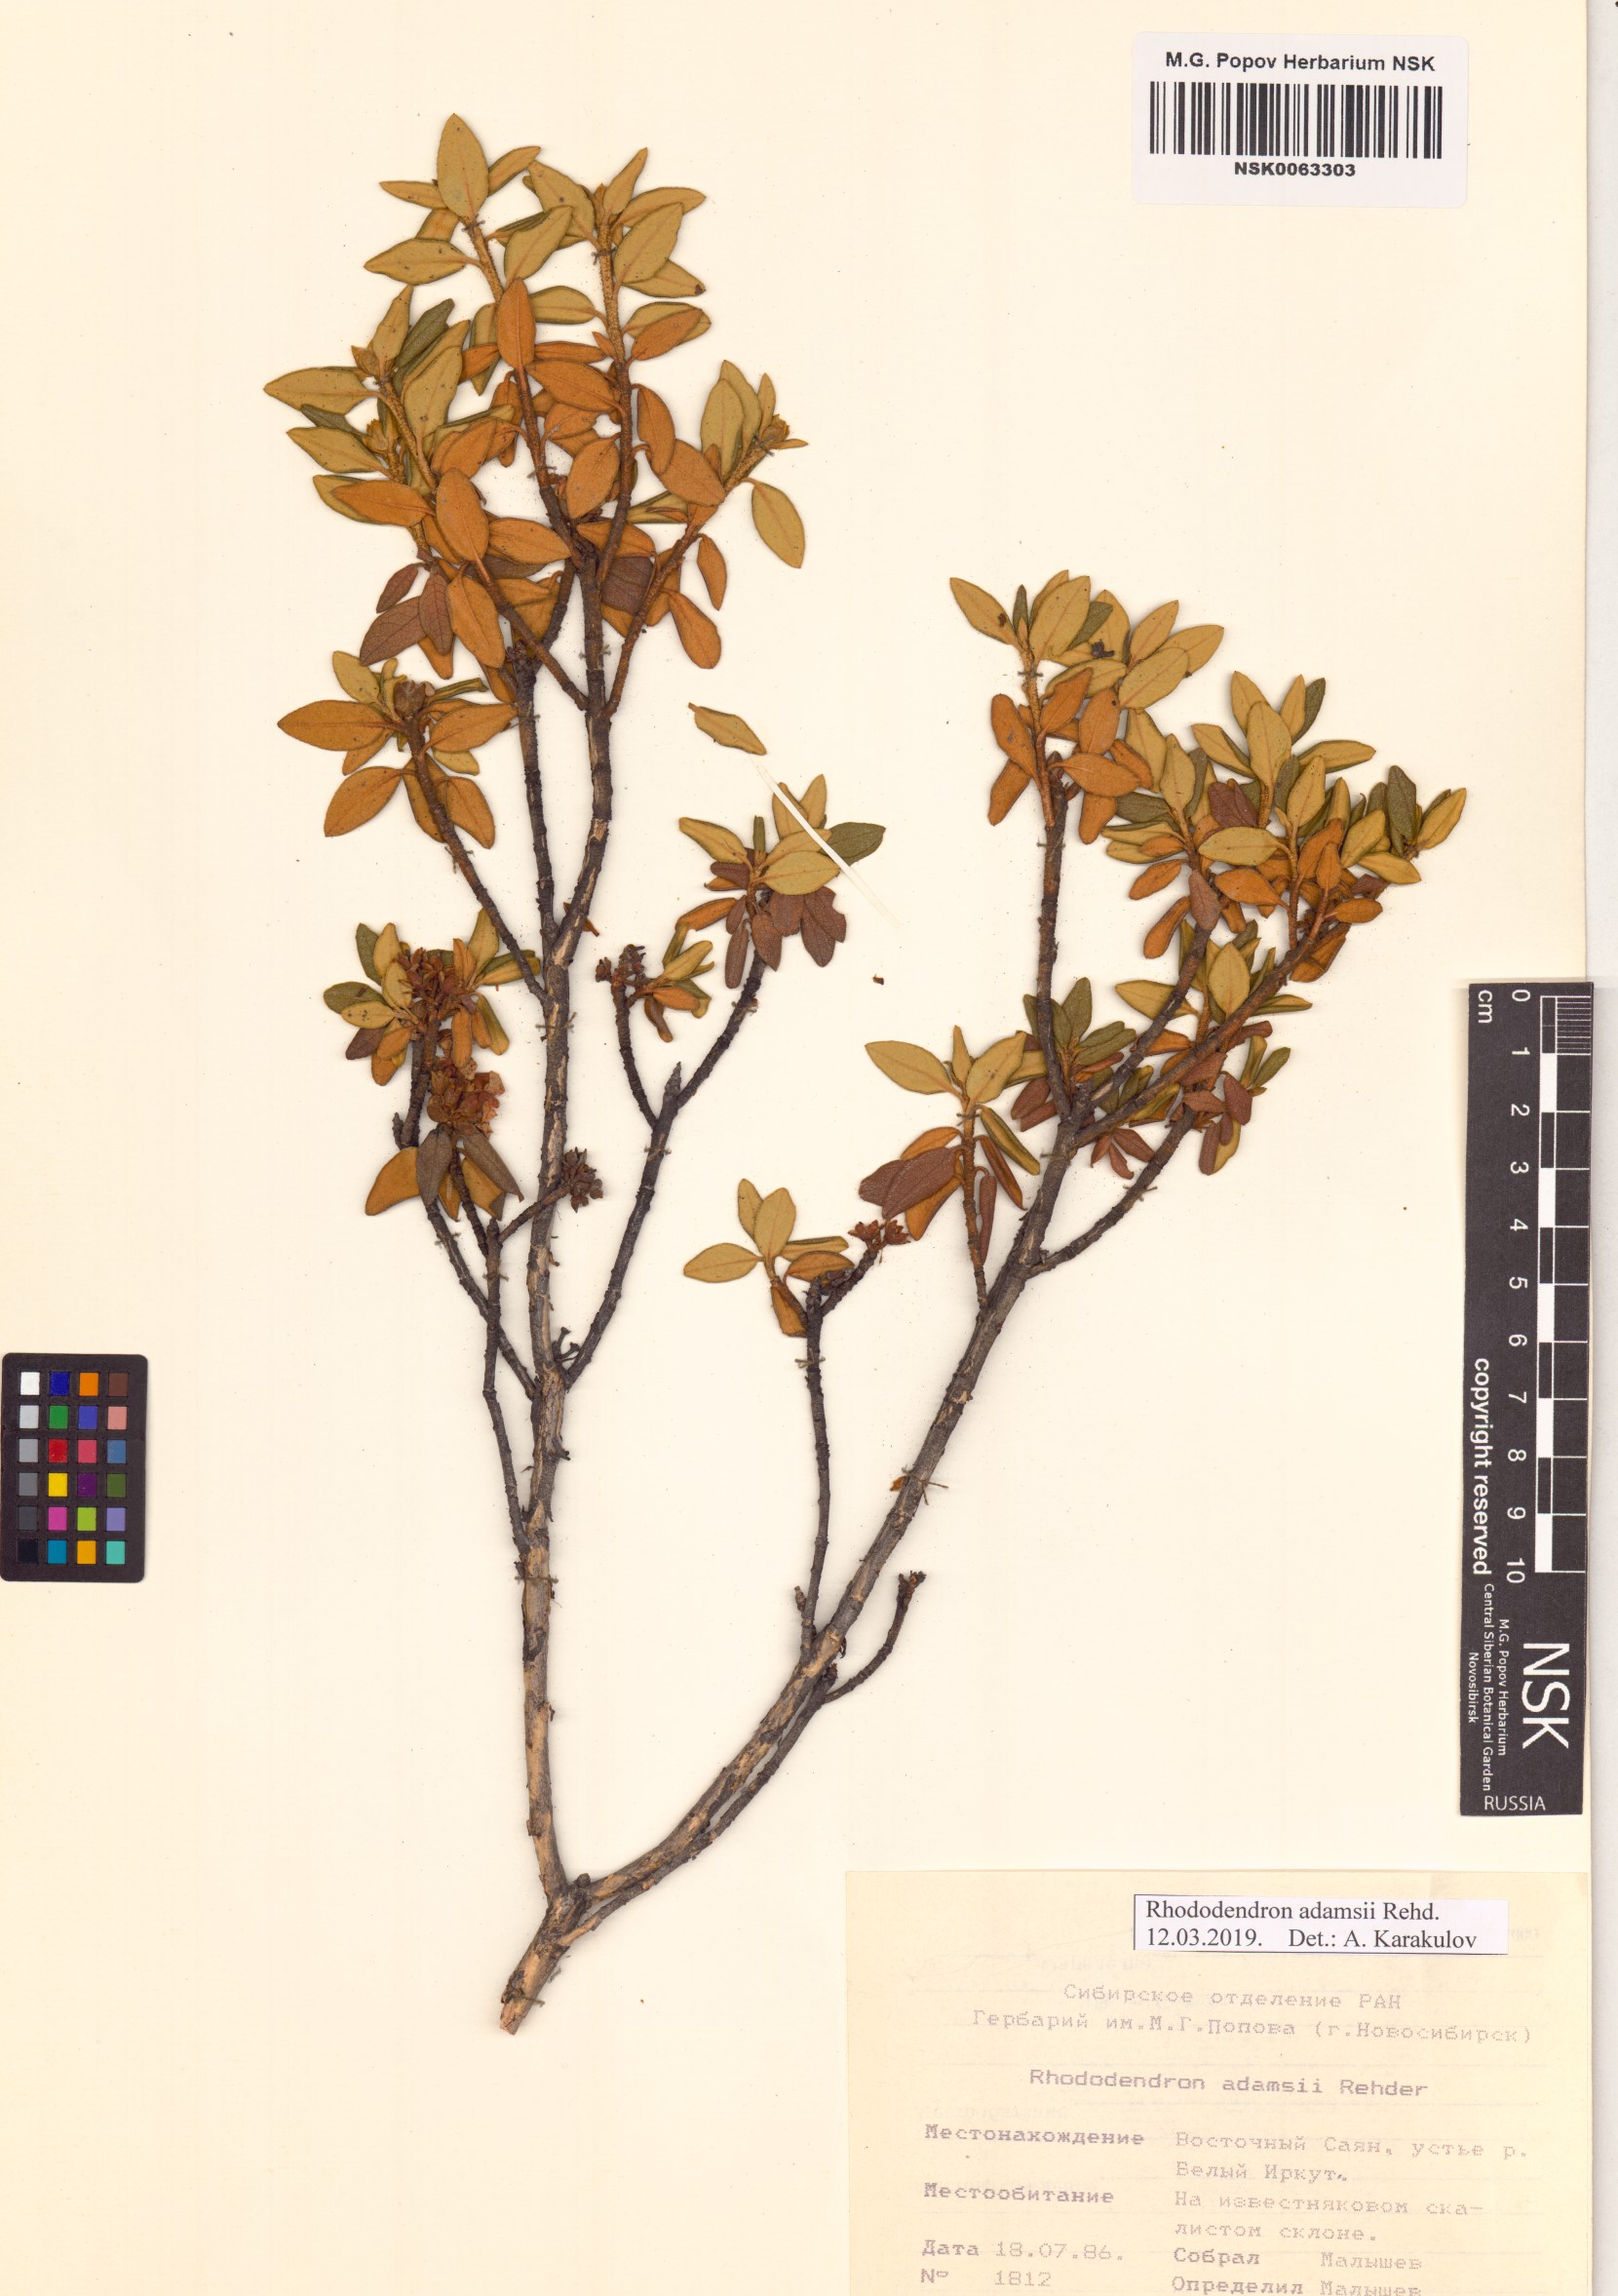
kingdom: Plantae
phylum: Tracheophyta
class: Magnoliopsida
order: Ericales
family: Ericaceae
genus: Rhododendron
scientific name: Rhododendron adamsii
